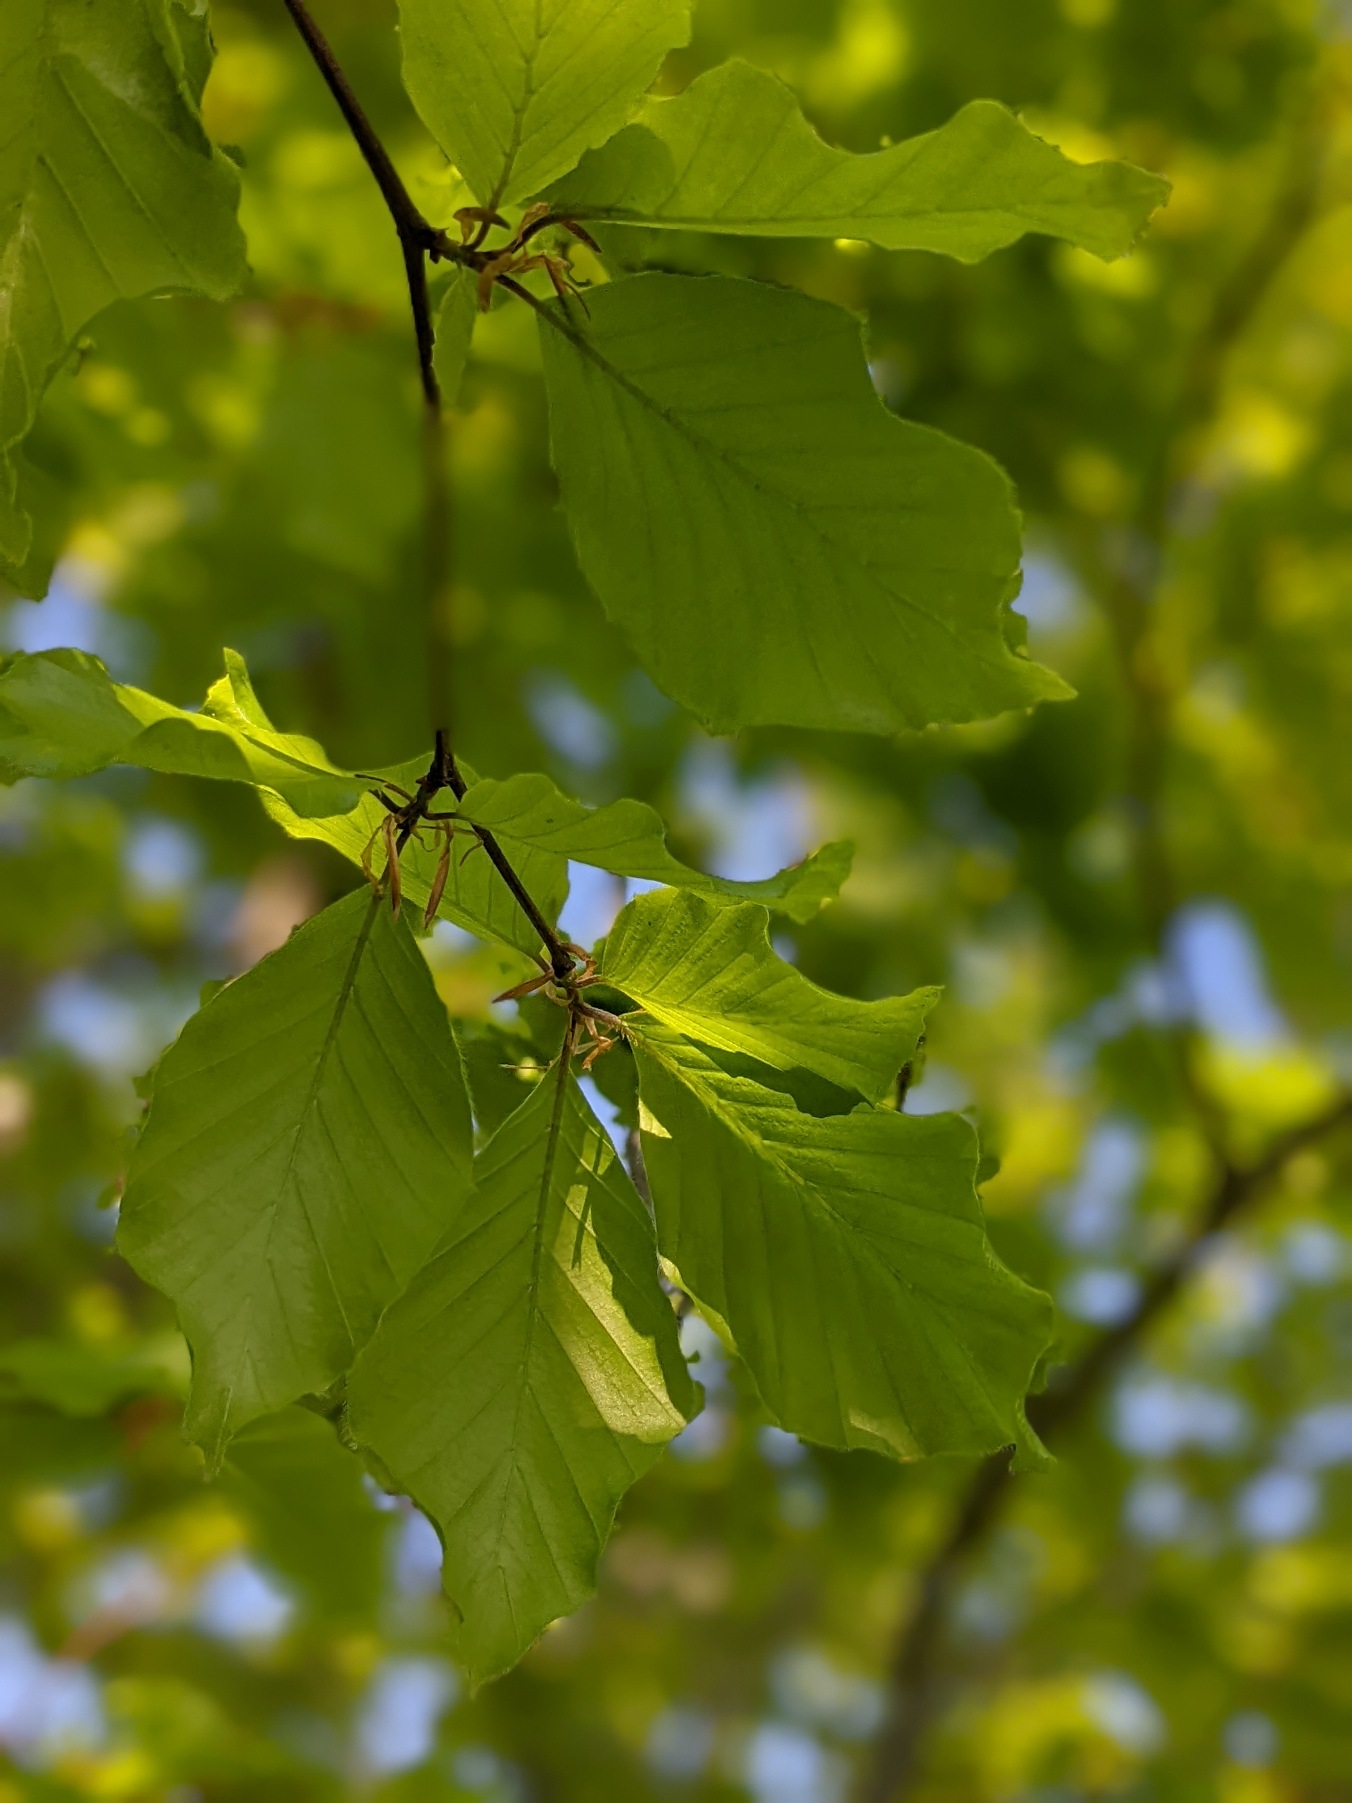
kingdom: Plantae
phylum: Tracheophyta
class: Magnoliopsida
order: Fagales
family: Fagaceae
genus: Fagus
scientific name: Fagus sylvatica
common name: Bøg
